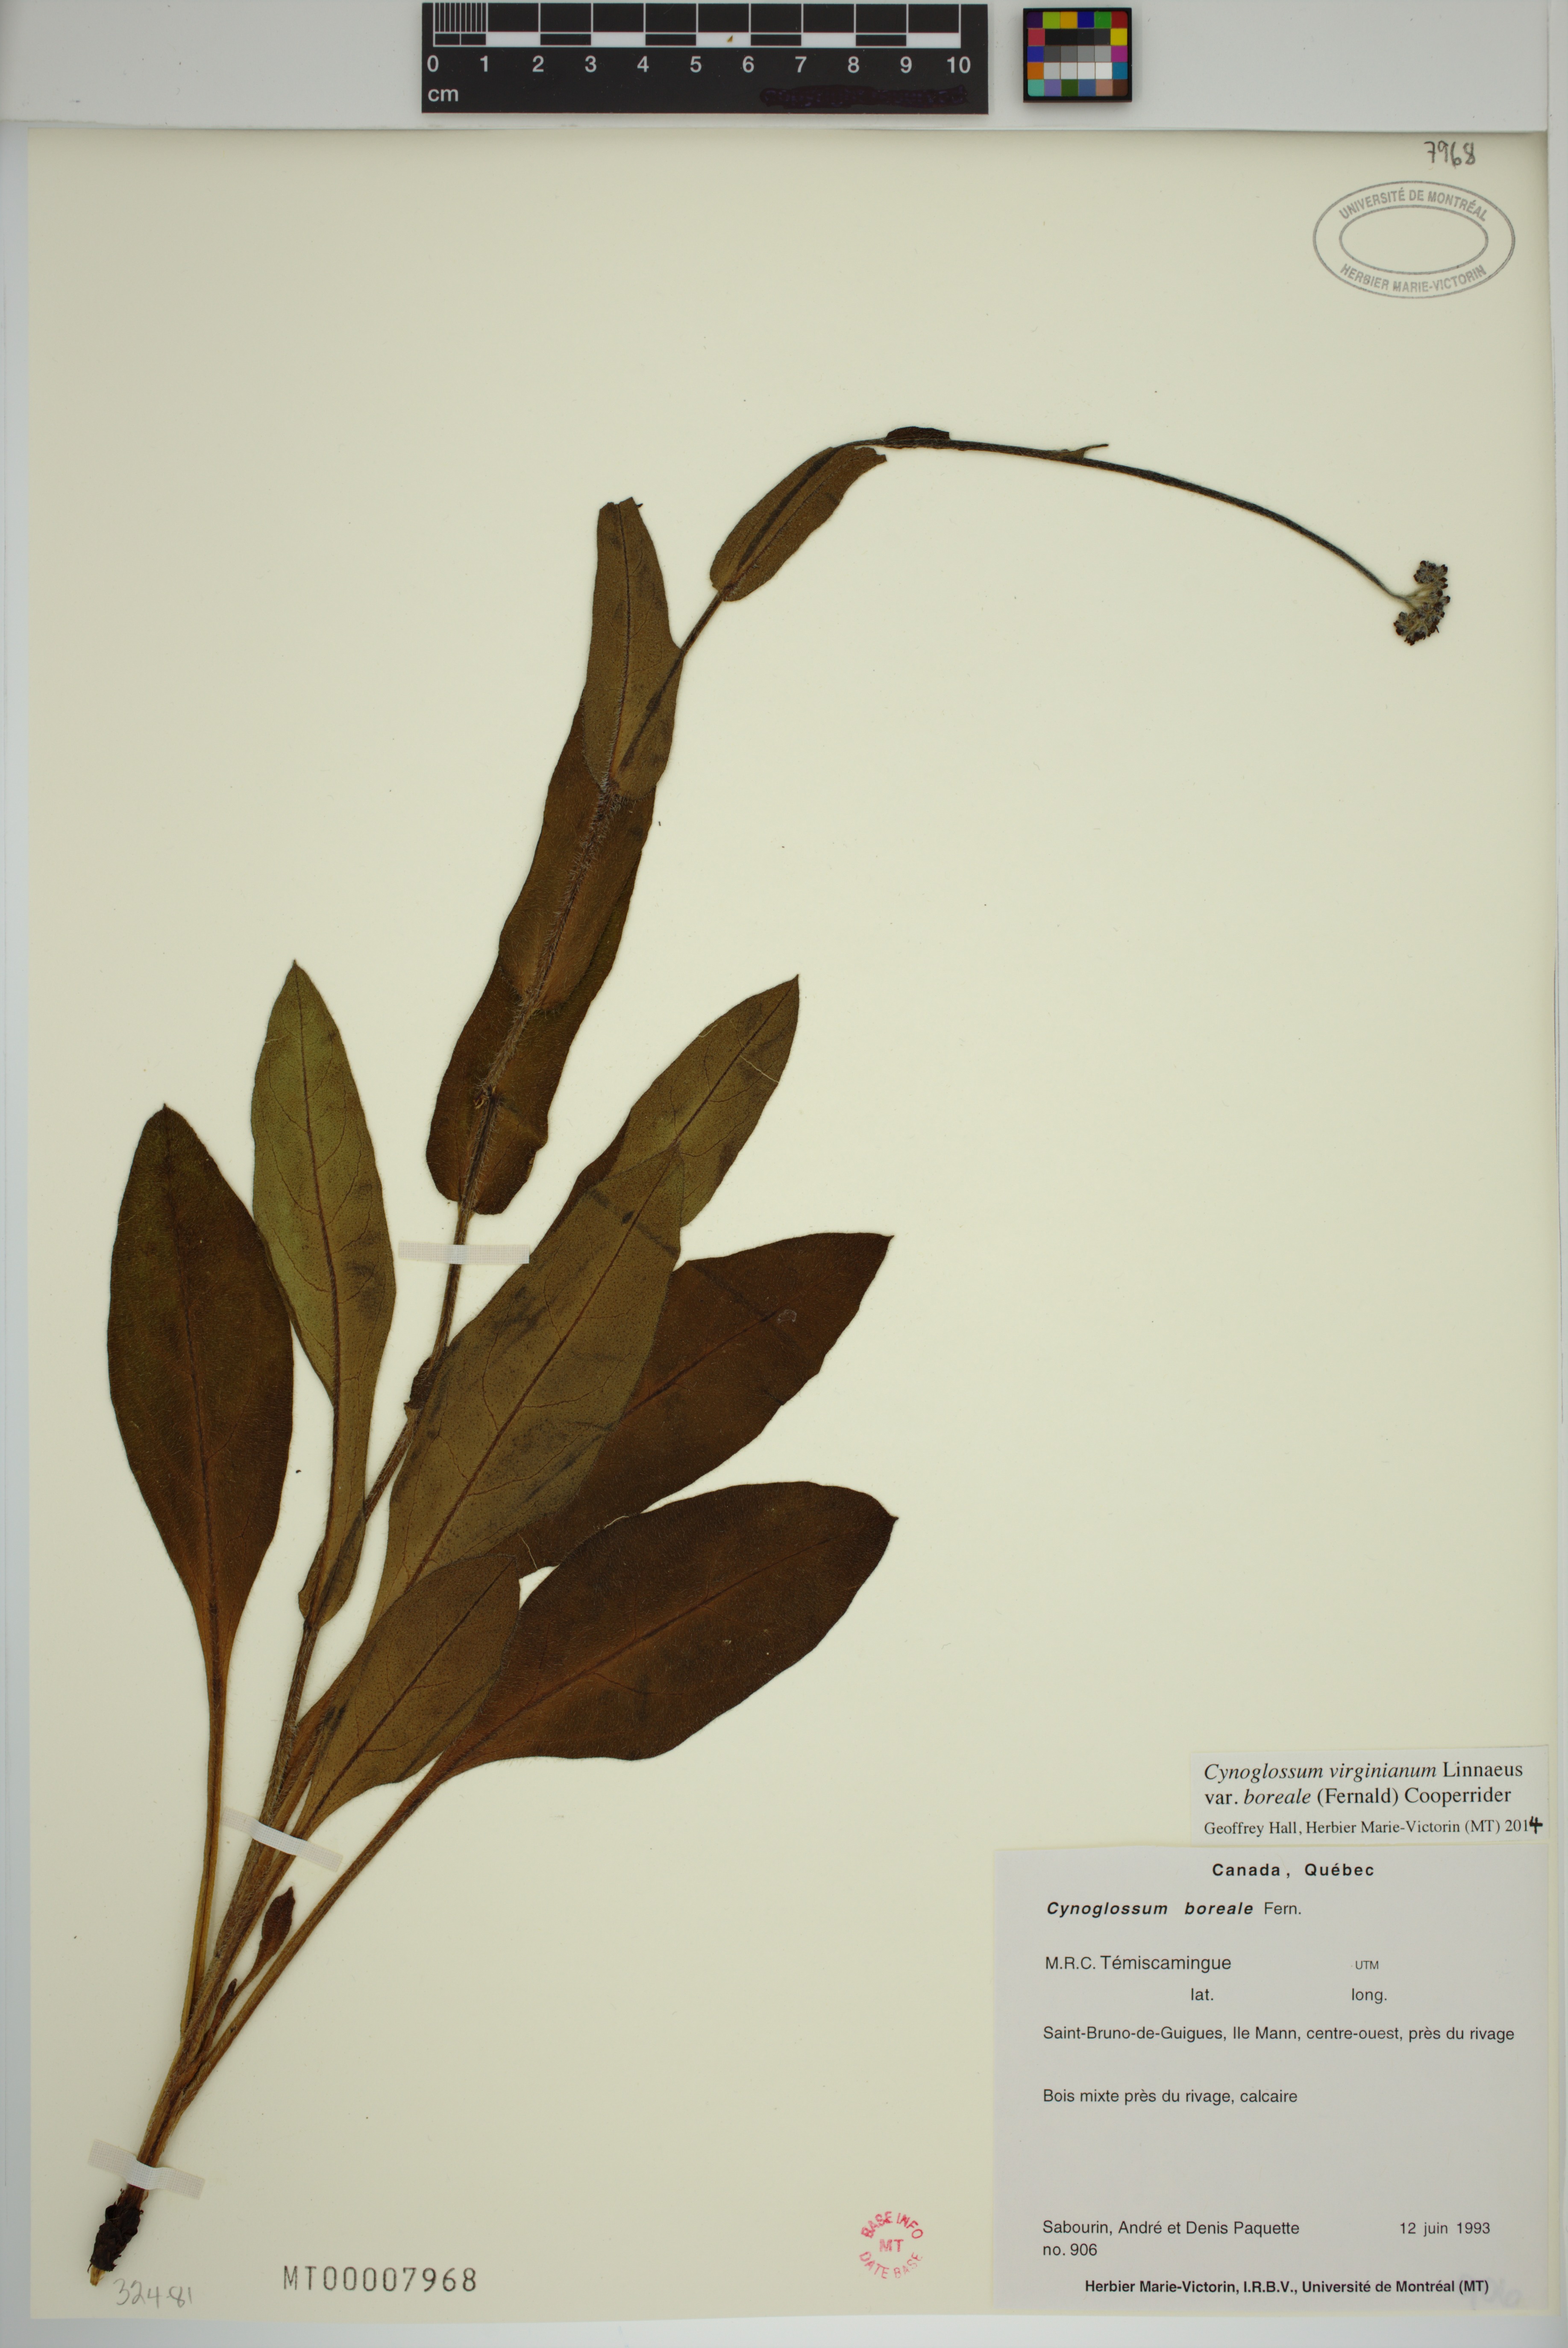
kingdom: Plantae
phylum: Tracheophyta
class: Magnoliopsida
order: Boraginales
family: Boraginaceae
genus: Andersonglossum
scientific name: Andersonglossum boreale
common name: Northern hound's-tongue
